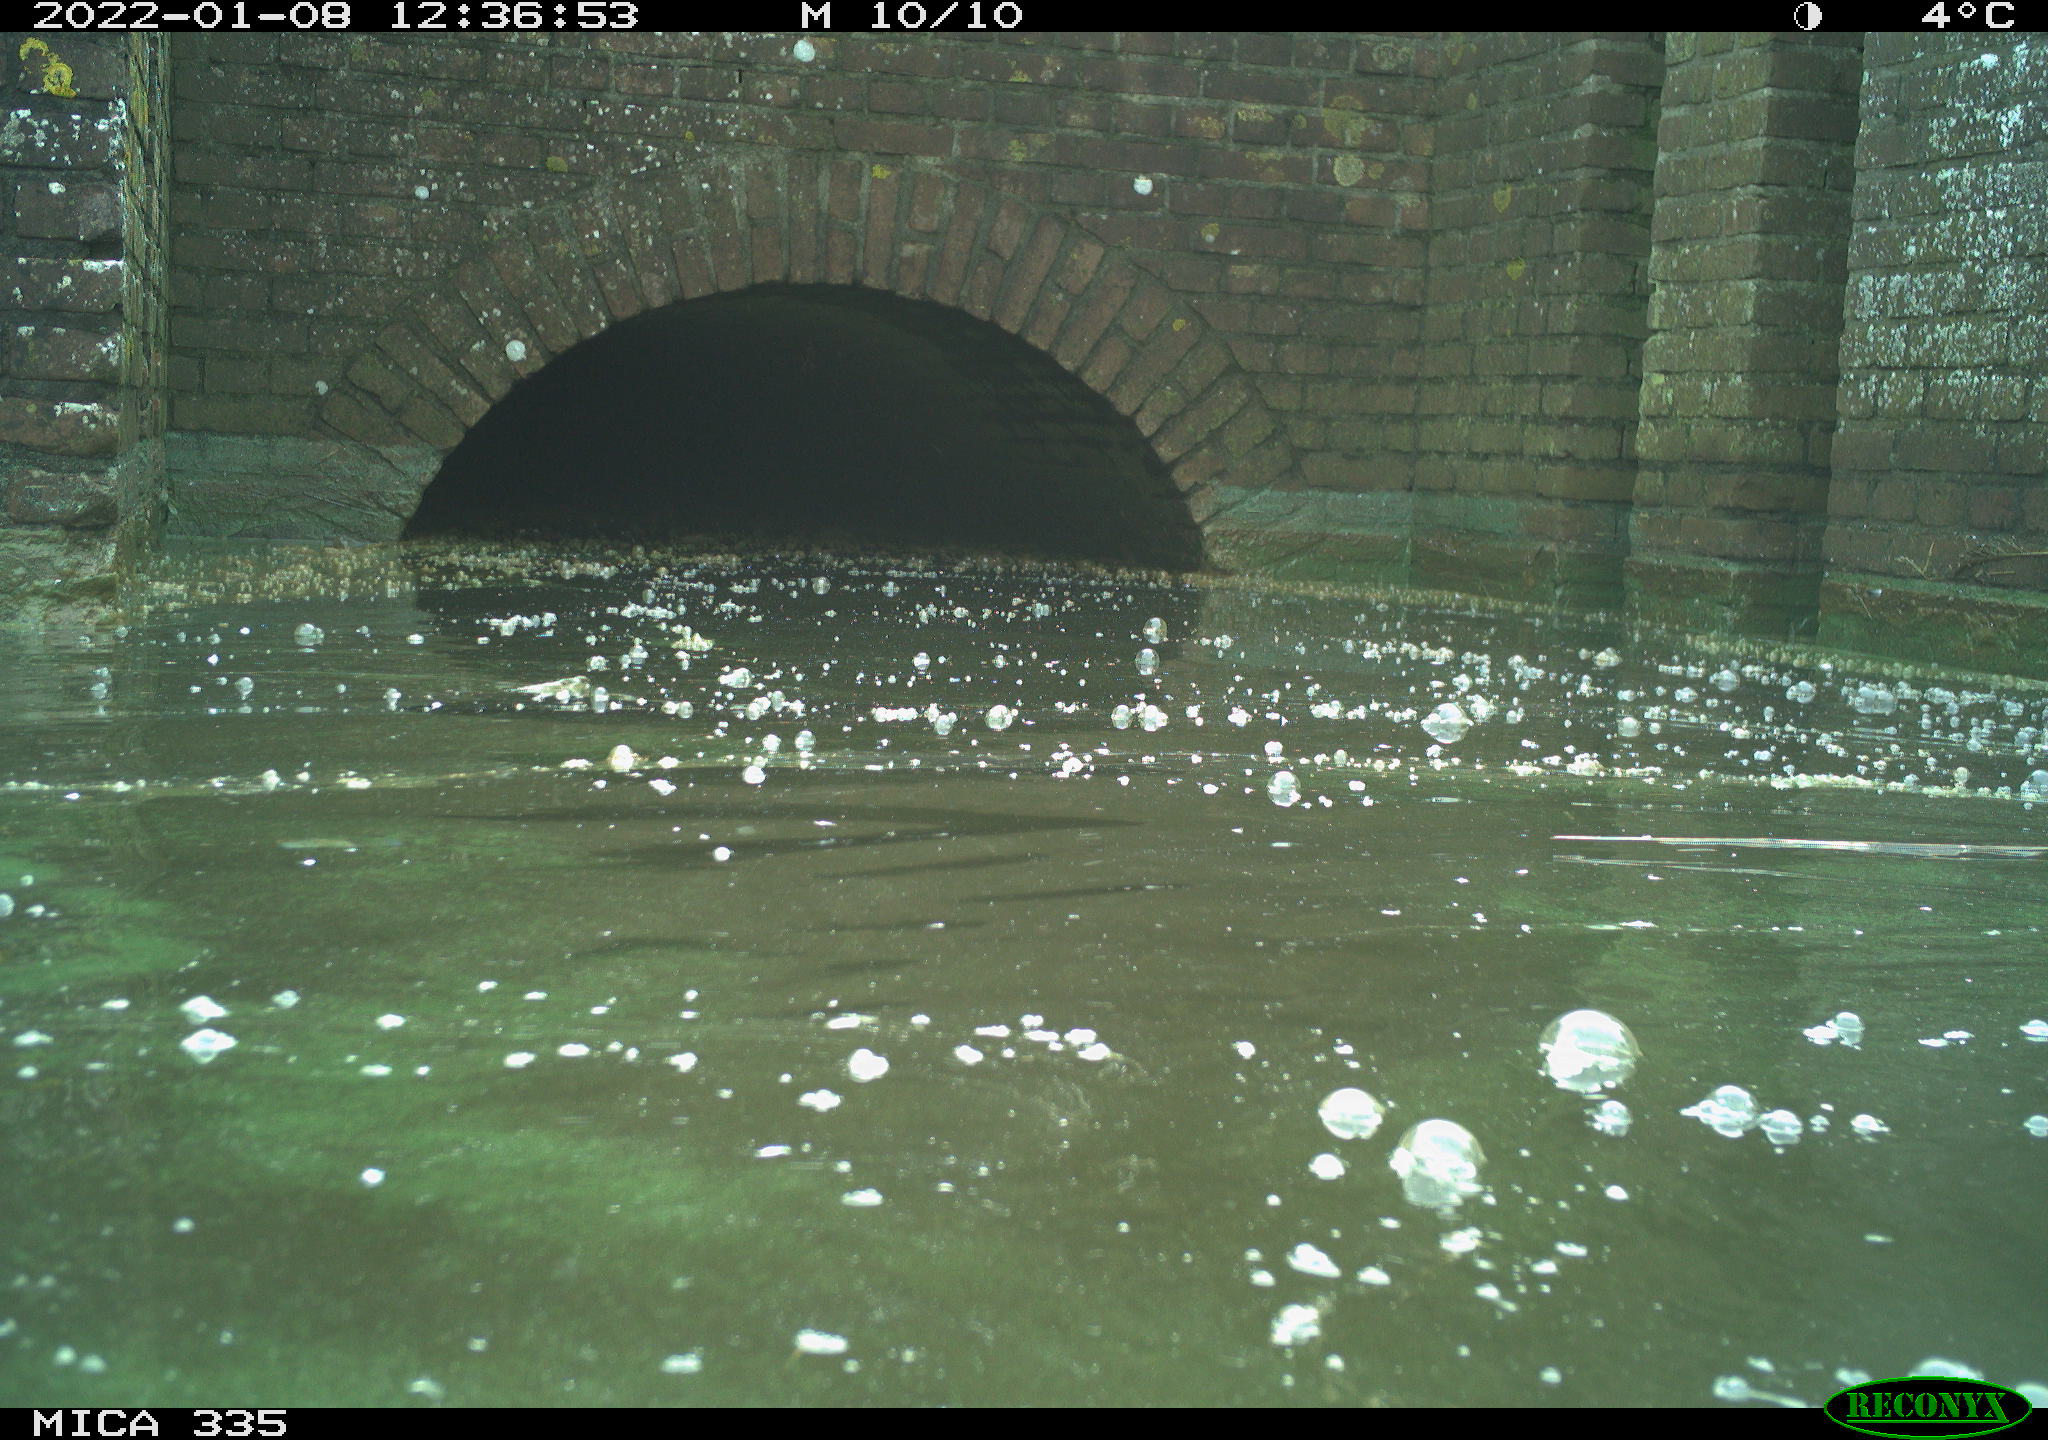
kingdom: Animalia
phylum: Chordata
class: Aves
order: Suliformes
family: Phalacrocoracidae
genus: Phalacrocorax
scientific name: Phalacrocorax carbo
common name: Great cormorant
